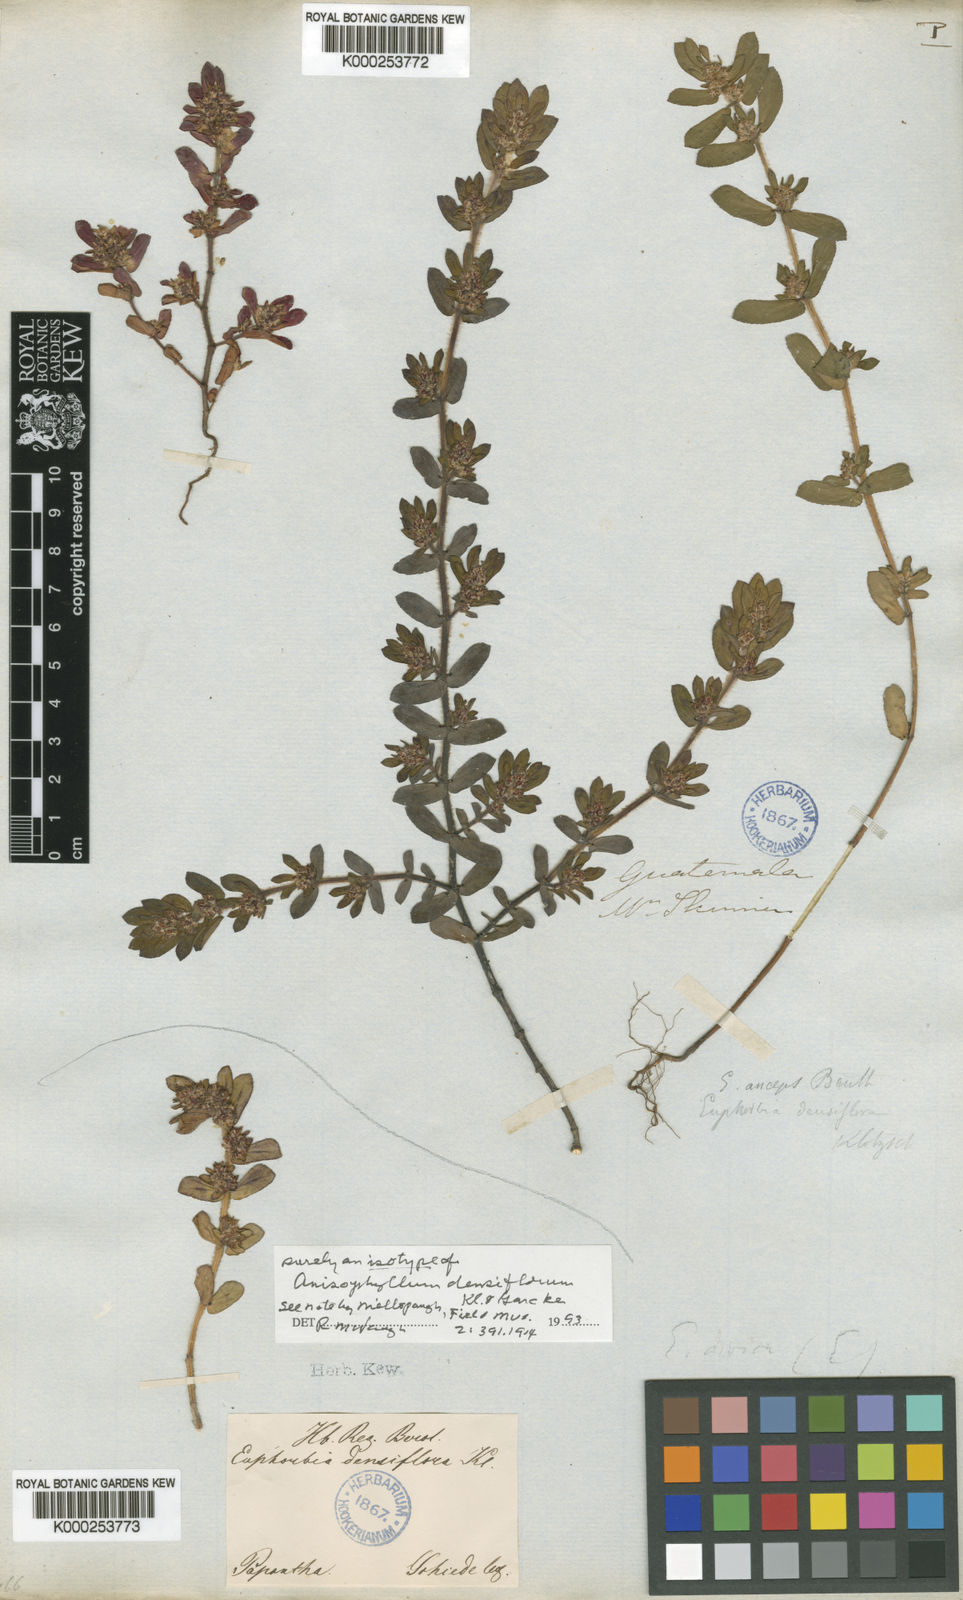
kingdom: Plantae
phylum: Tracheophyta
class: Magnoliopsida
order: Malpighiales
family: Euphorbiaceae
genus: Euphorbia
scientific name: Euphorbia densiflora
